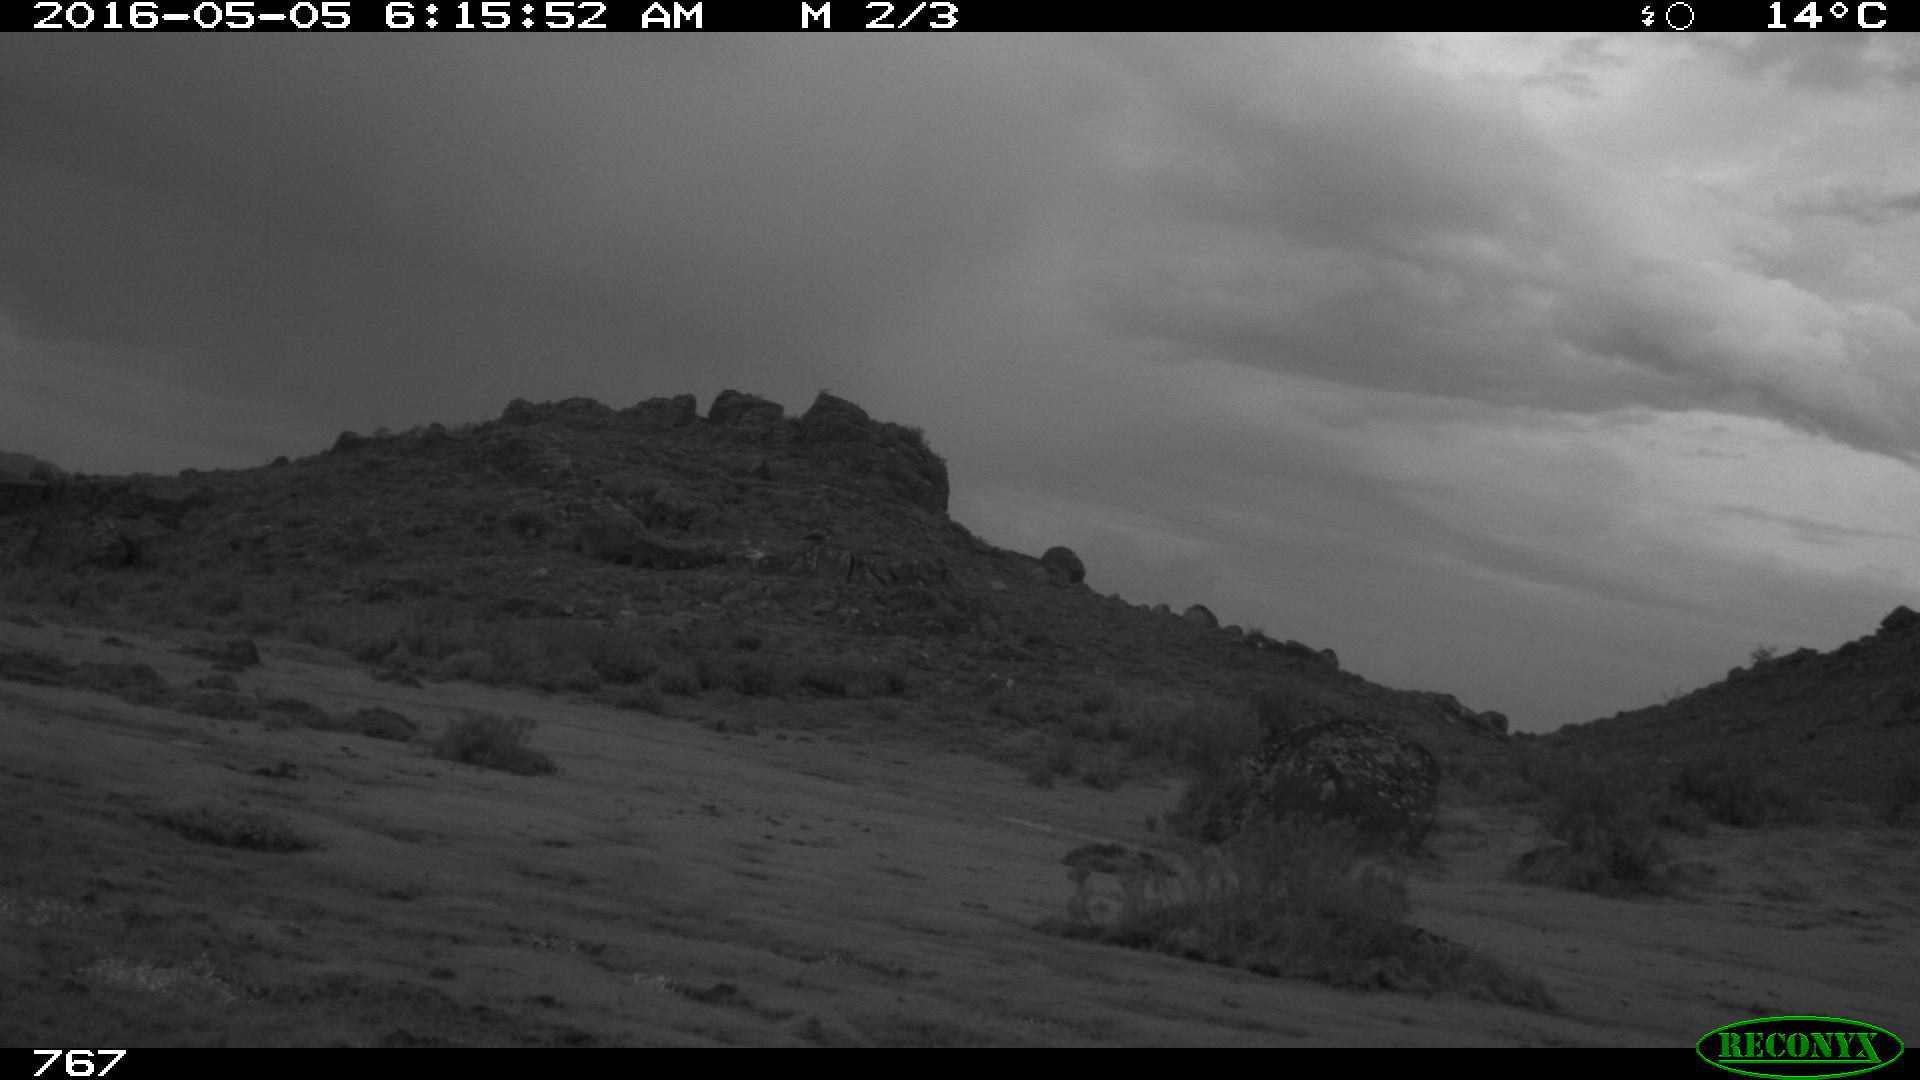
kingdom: Animalia
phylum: Chordata
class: Mammalia
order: Perissodactyla
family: Equidae
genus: Equus
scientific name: Equus caballus
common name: Horse
